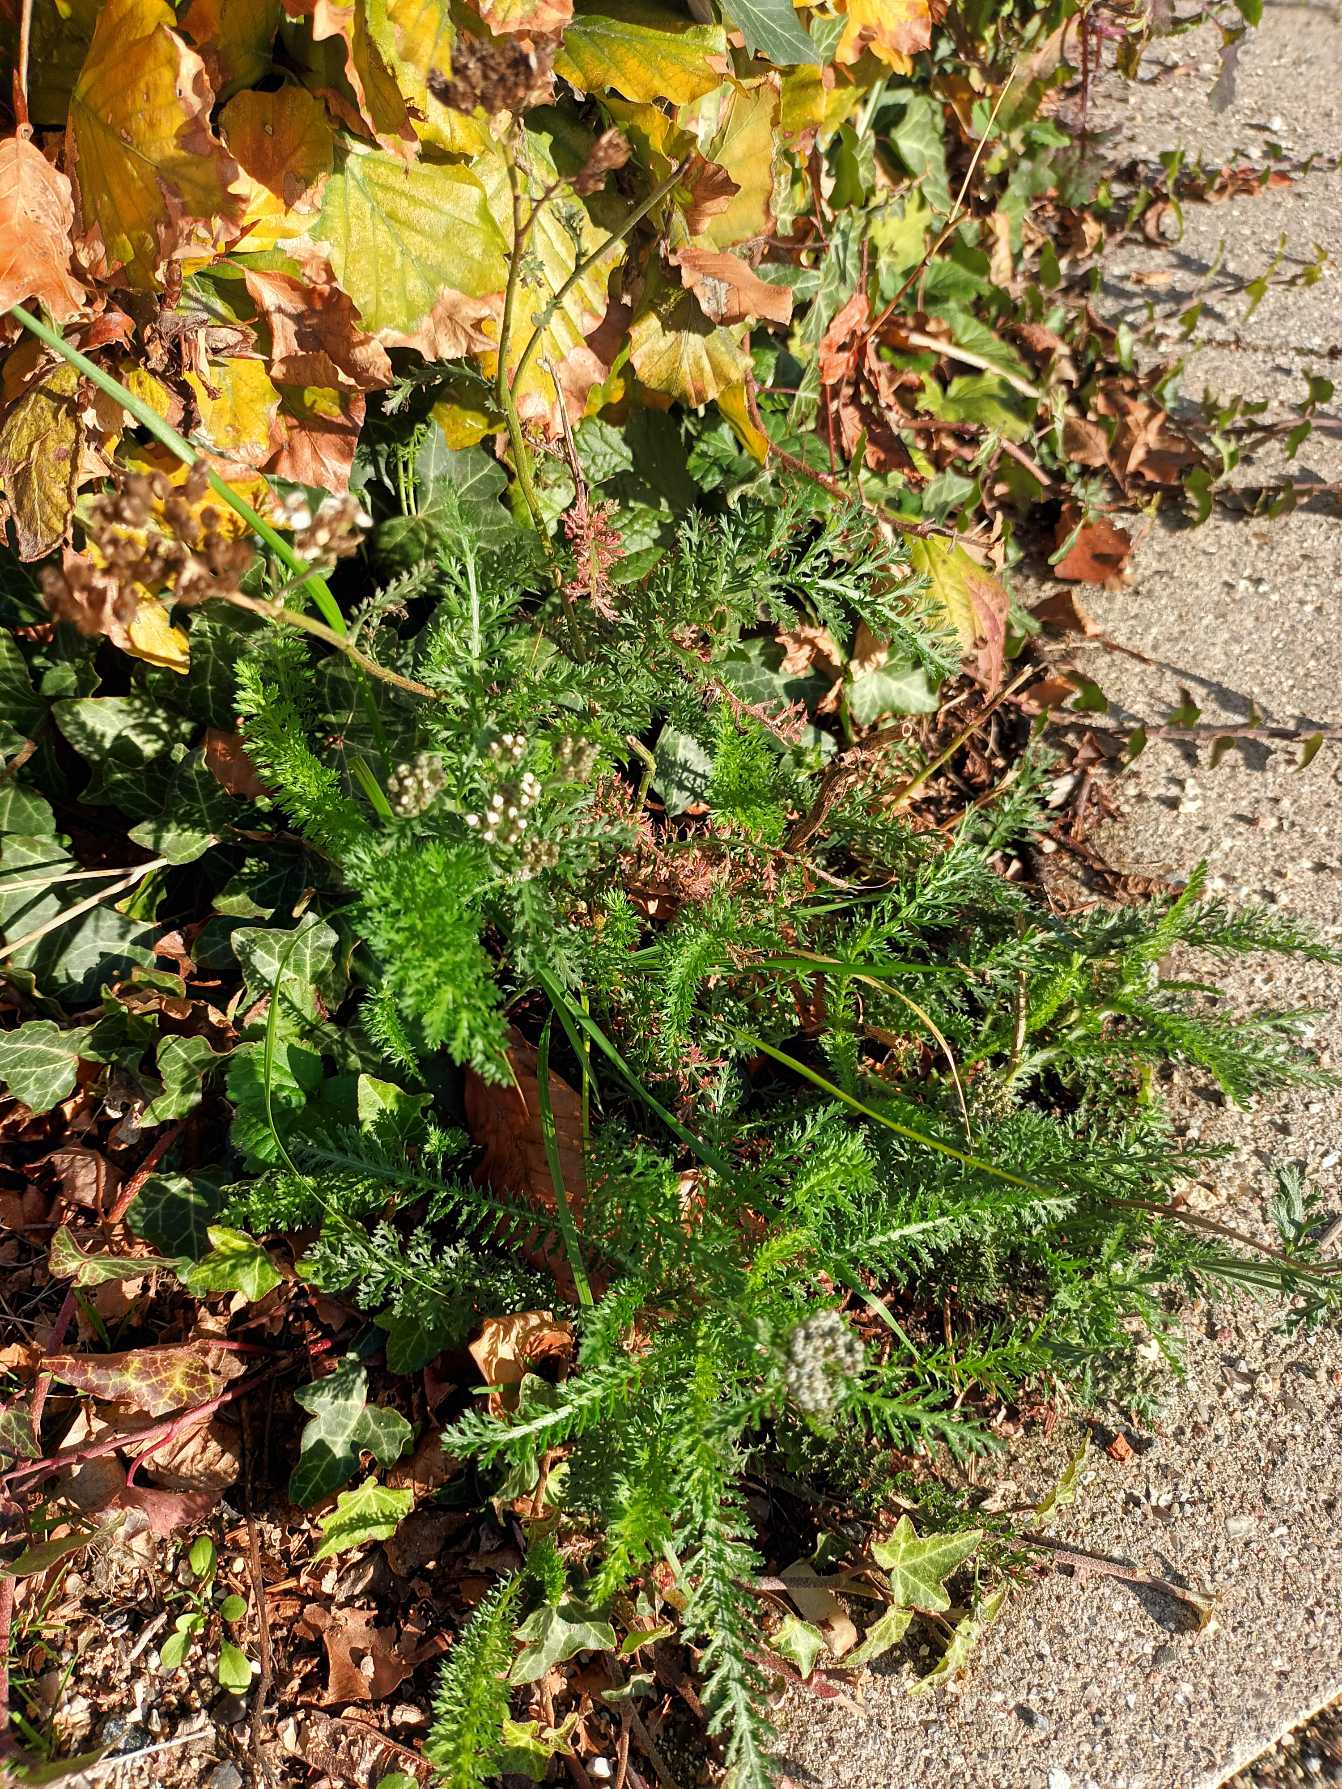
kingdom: Plantae
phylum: Tracheophyta
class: Magnoliopsida
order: Asterales
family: Asteraceae
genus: Achillea
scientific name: Achillea millefolium
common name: Almindelig røllike
